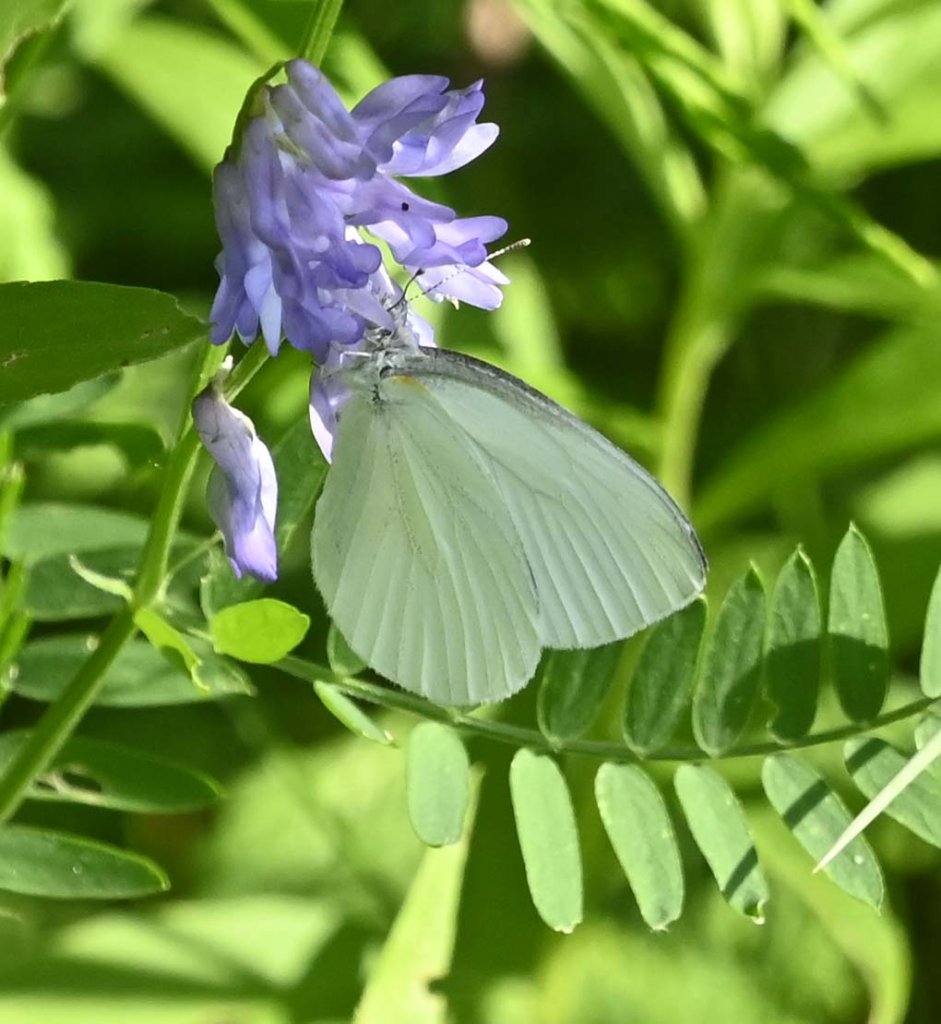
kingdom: Animalia
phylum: Arthropoda
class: Insecta
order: Lepidoptera
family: Pieridae
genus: Pieris
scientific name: Pieris oleracea
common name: Mustard White
